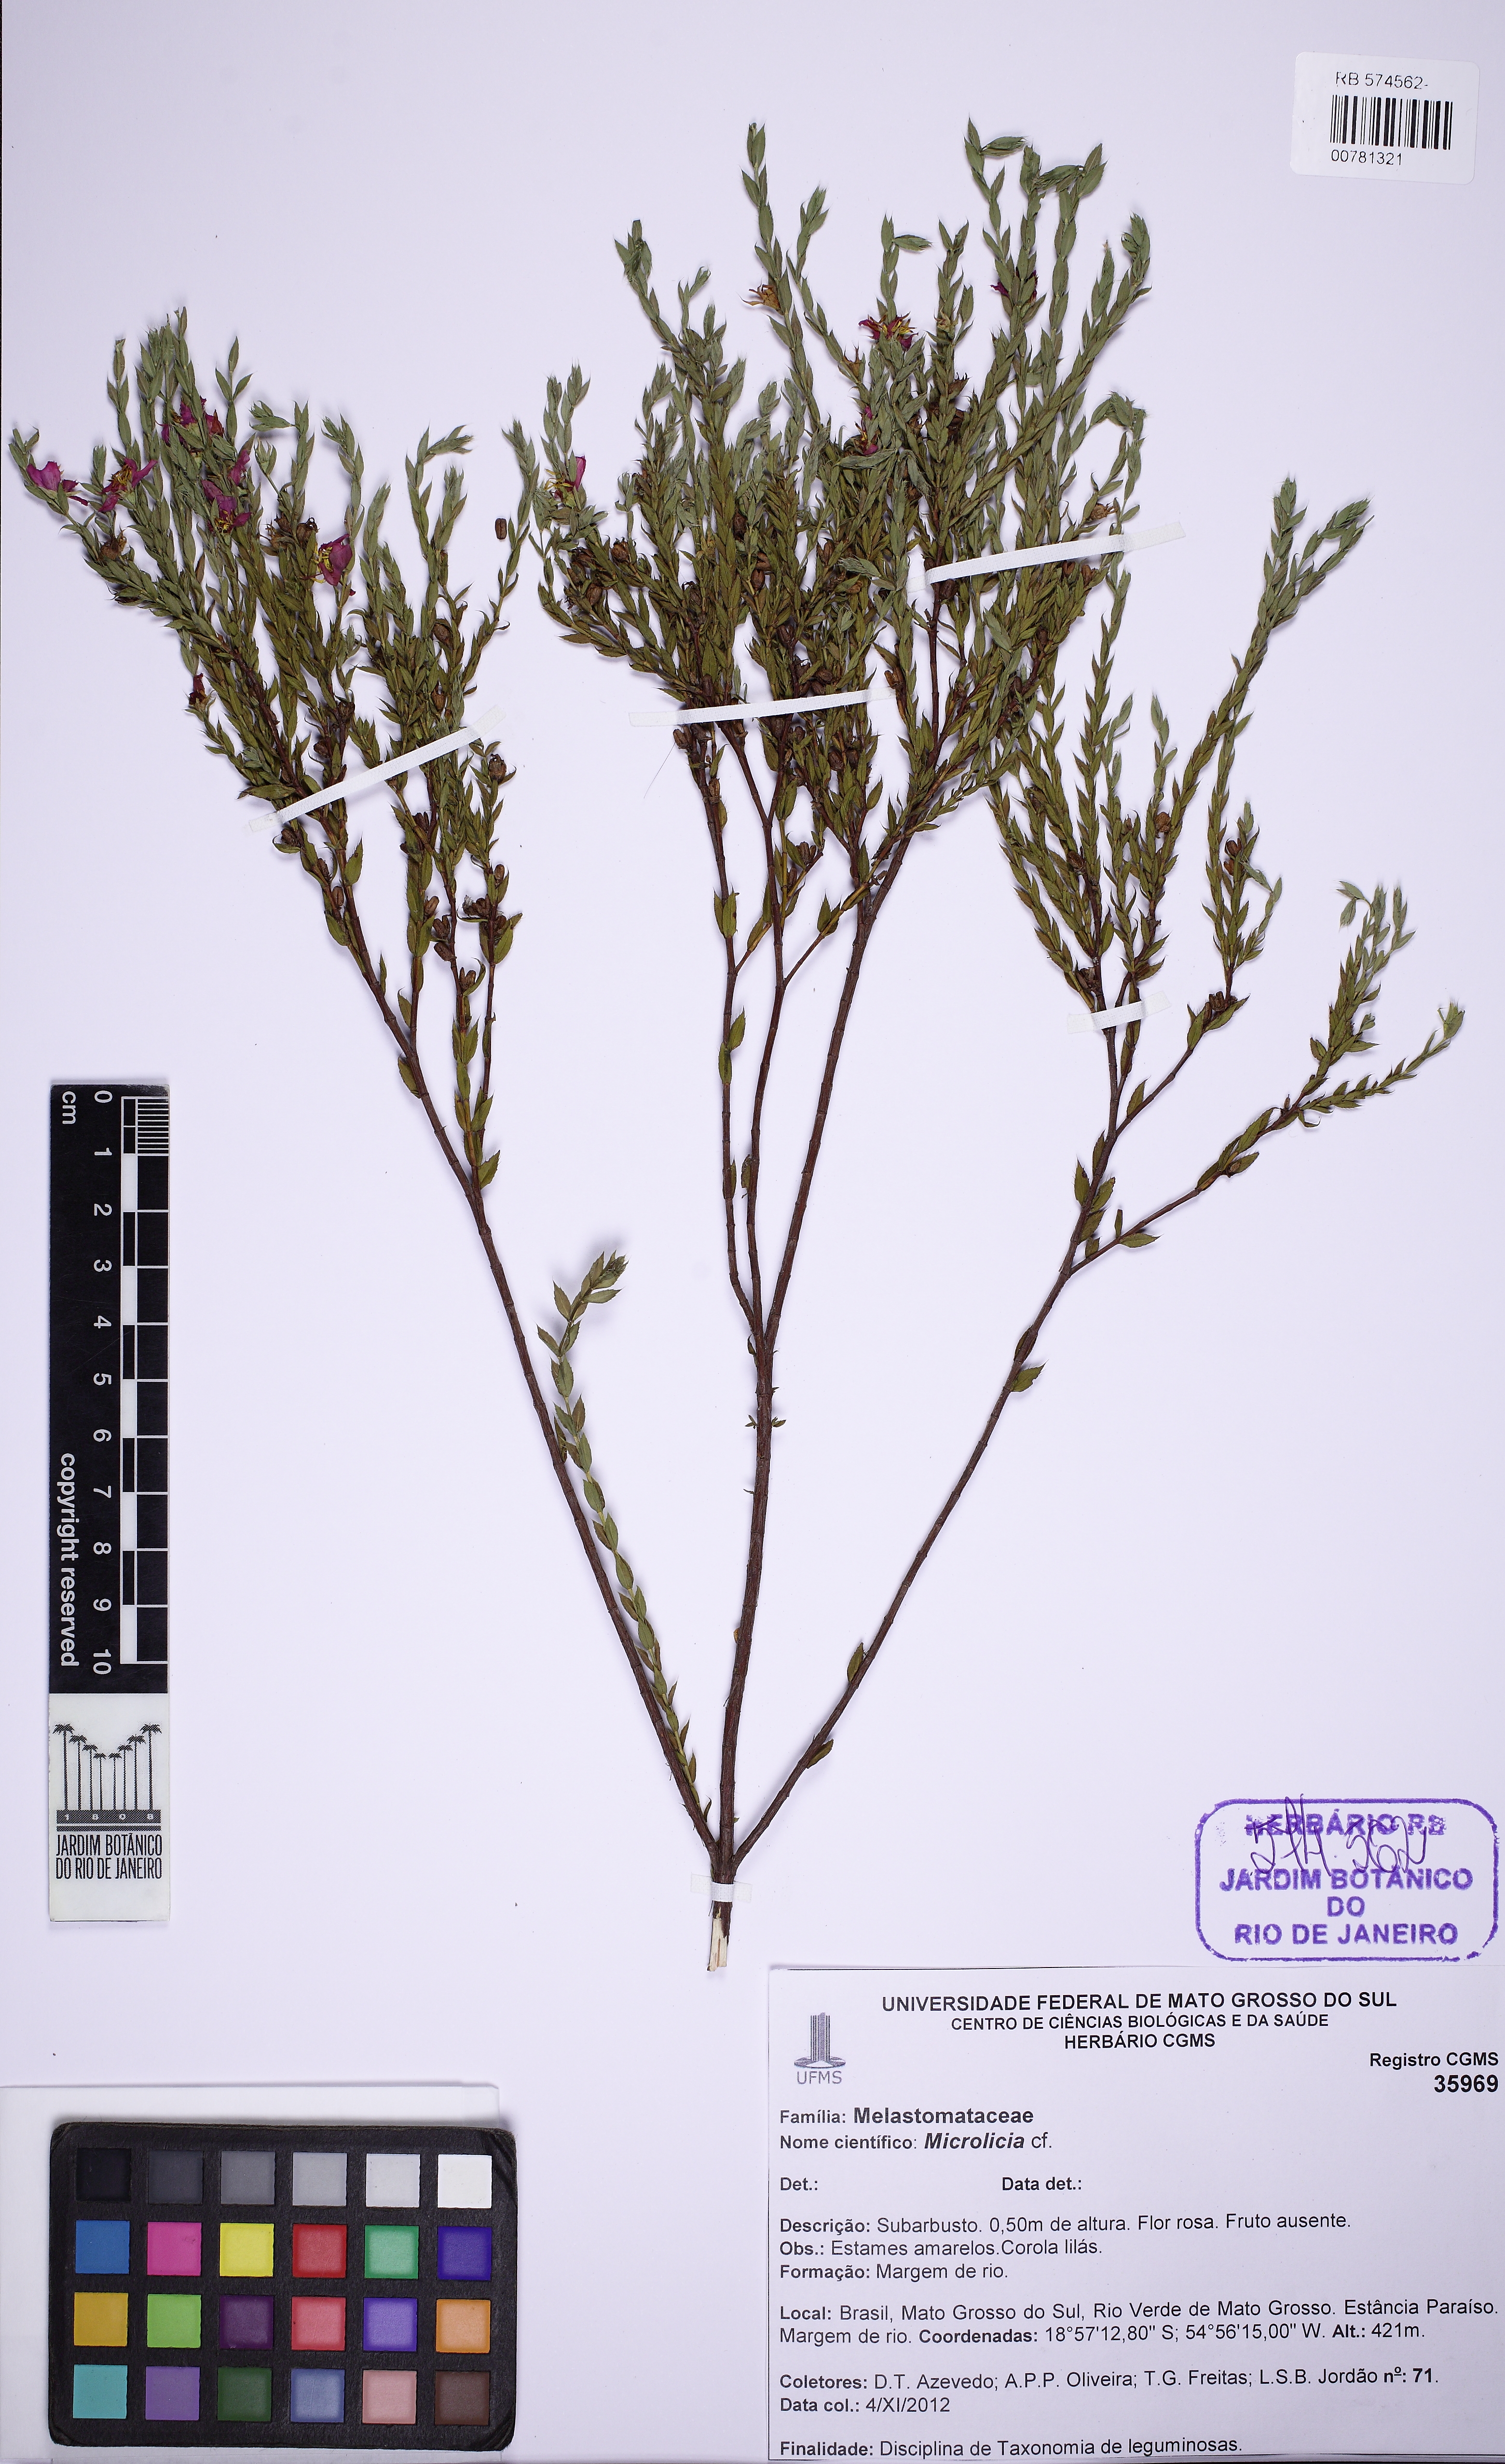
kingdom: Plantae
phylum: Tracheophyta
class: Magnoliopsida
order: Myrtales
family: Melastomataceae
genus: Microlicia
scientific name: Microlicia insignis
